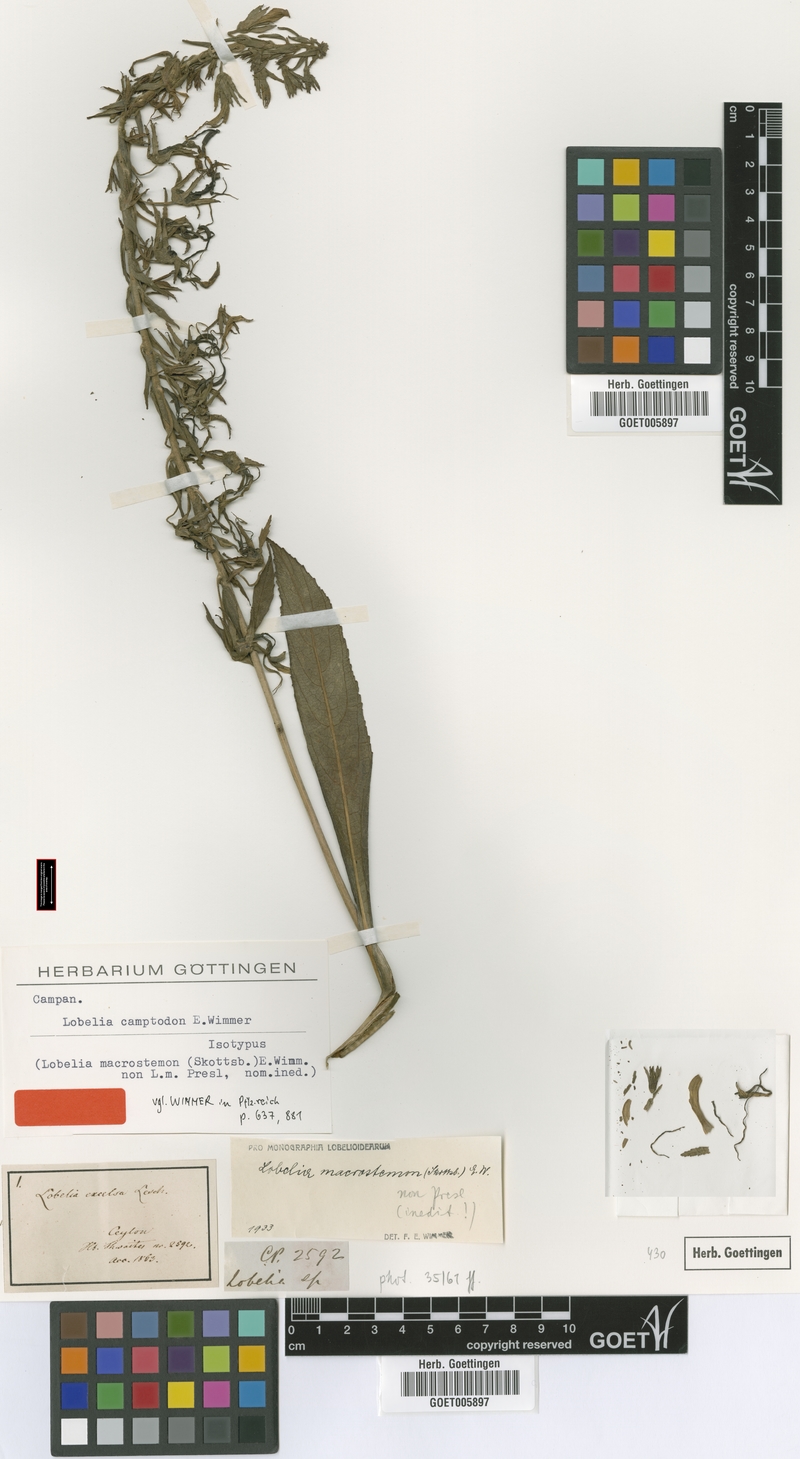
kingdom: Plantae
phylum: Tracheophyta
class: Magnoliopsida
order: Asterales
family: Campanulaceae
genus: Lobelia
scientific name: Lobelia leschenaultiana
